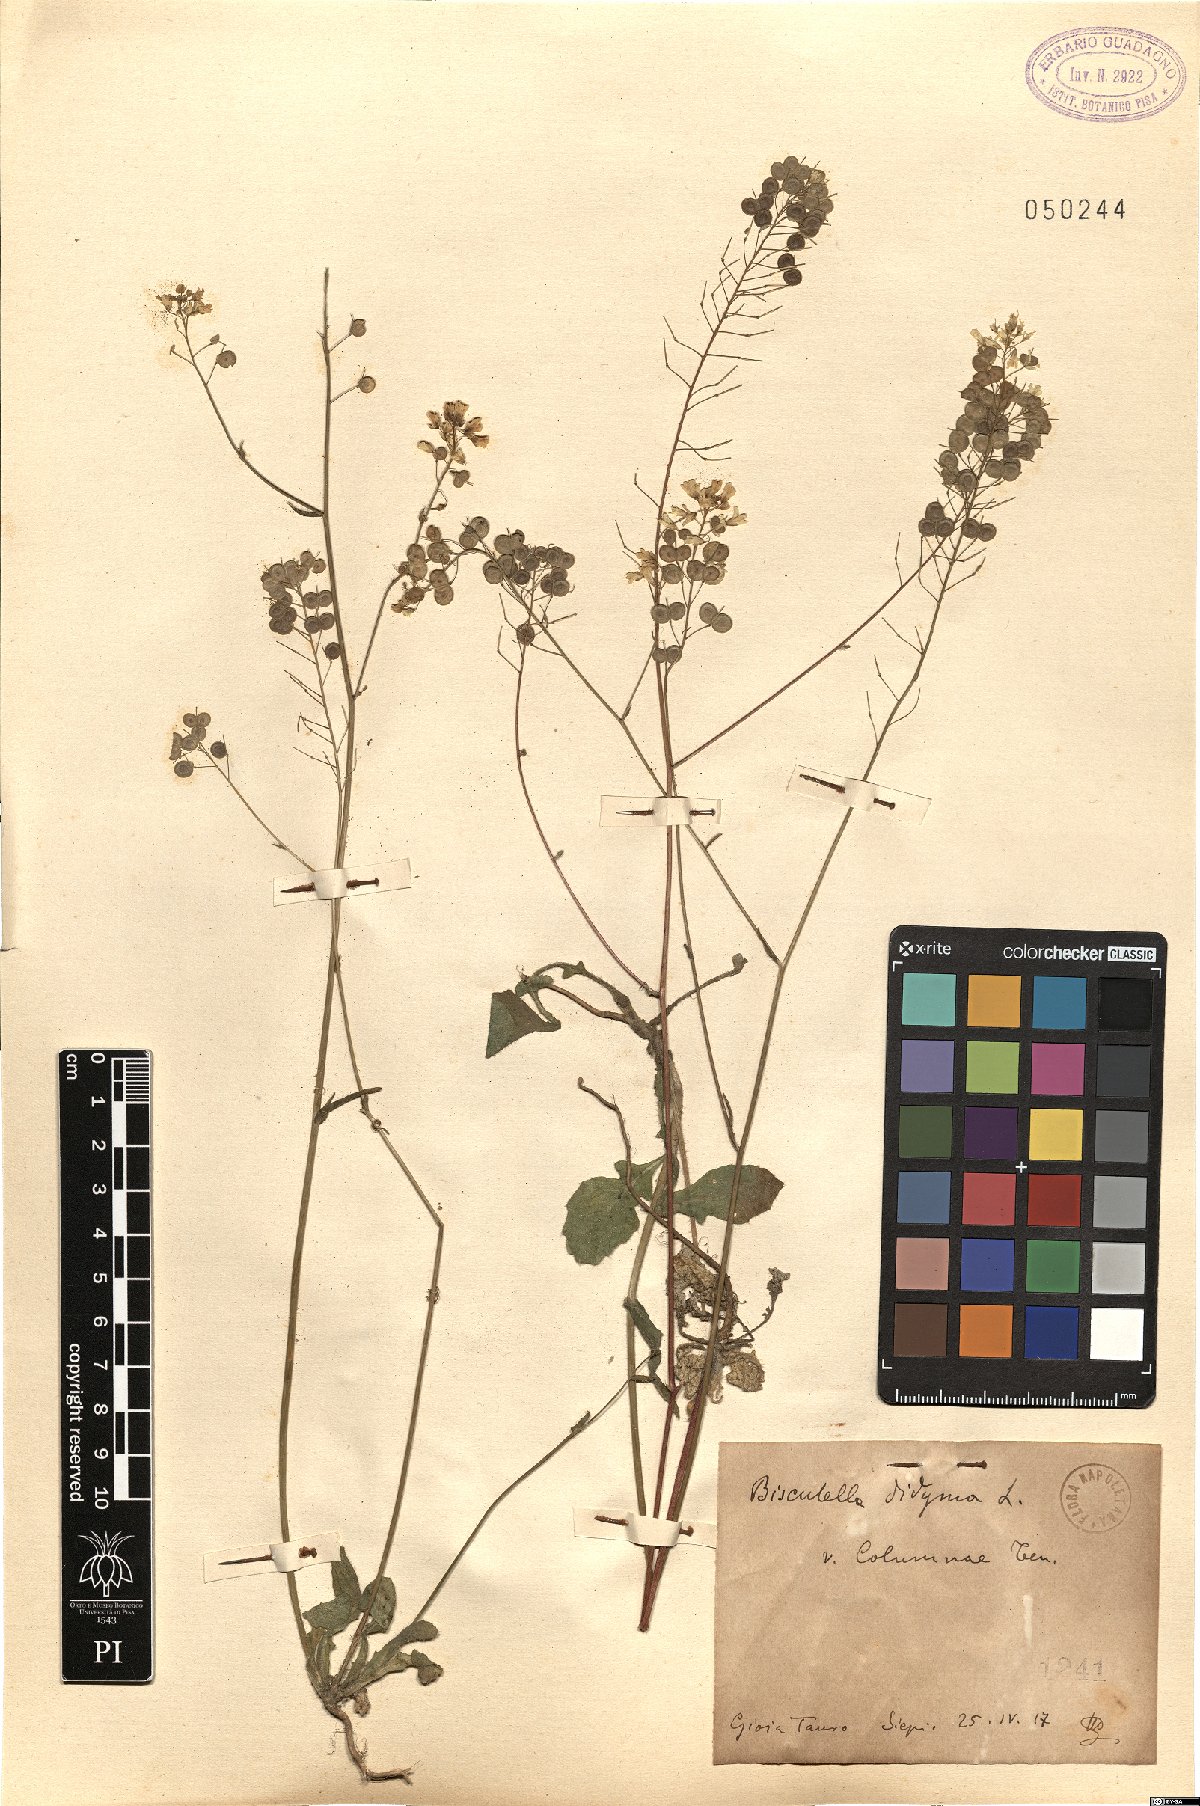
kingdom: Plantae
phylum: Tracheophyta
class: Magnoliopsida
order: Brassicales
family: Brassicaceae
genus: Biscutella
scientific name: Biscutella didyma
